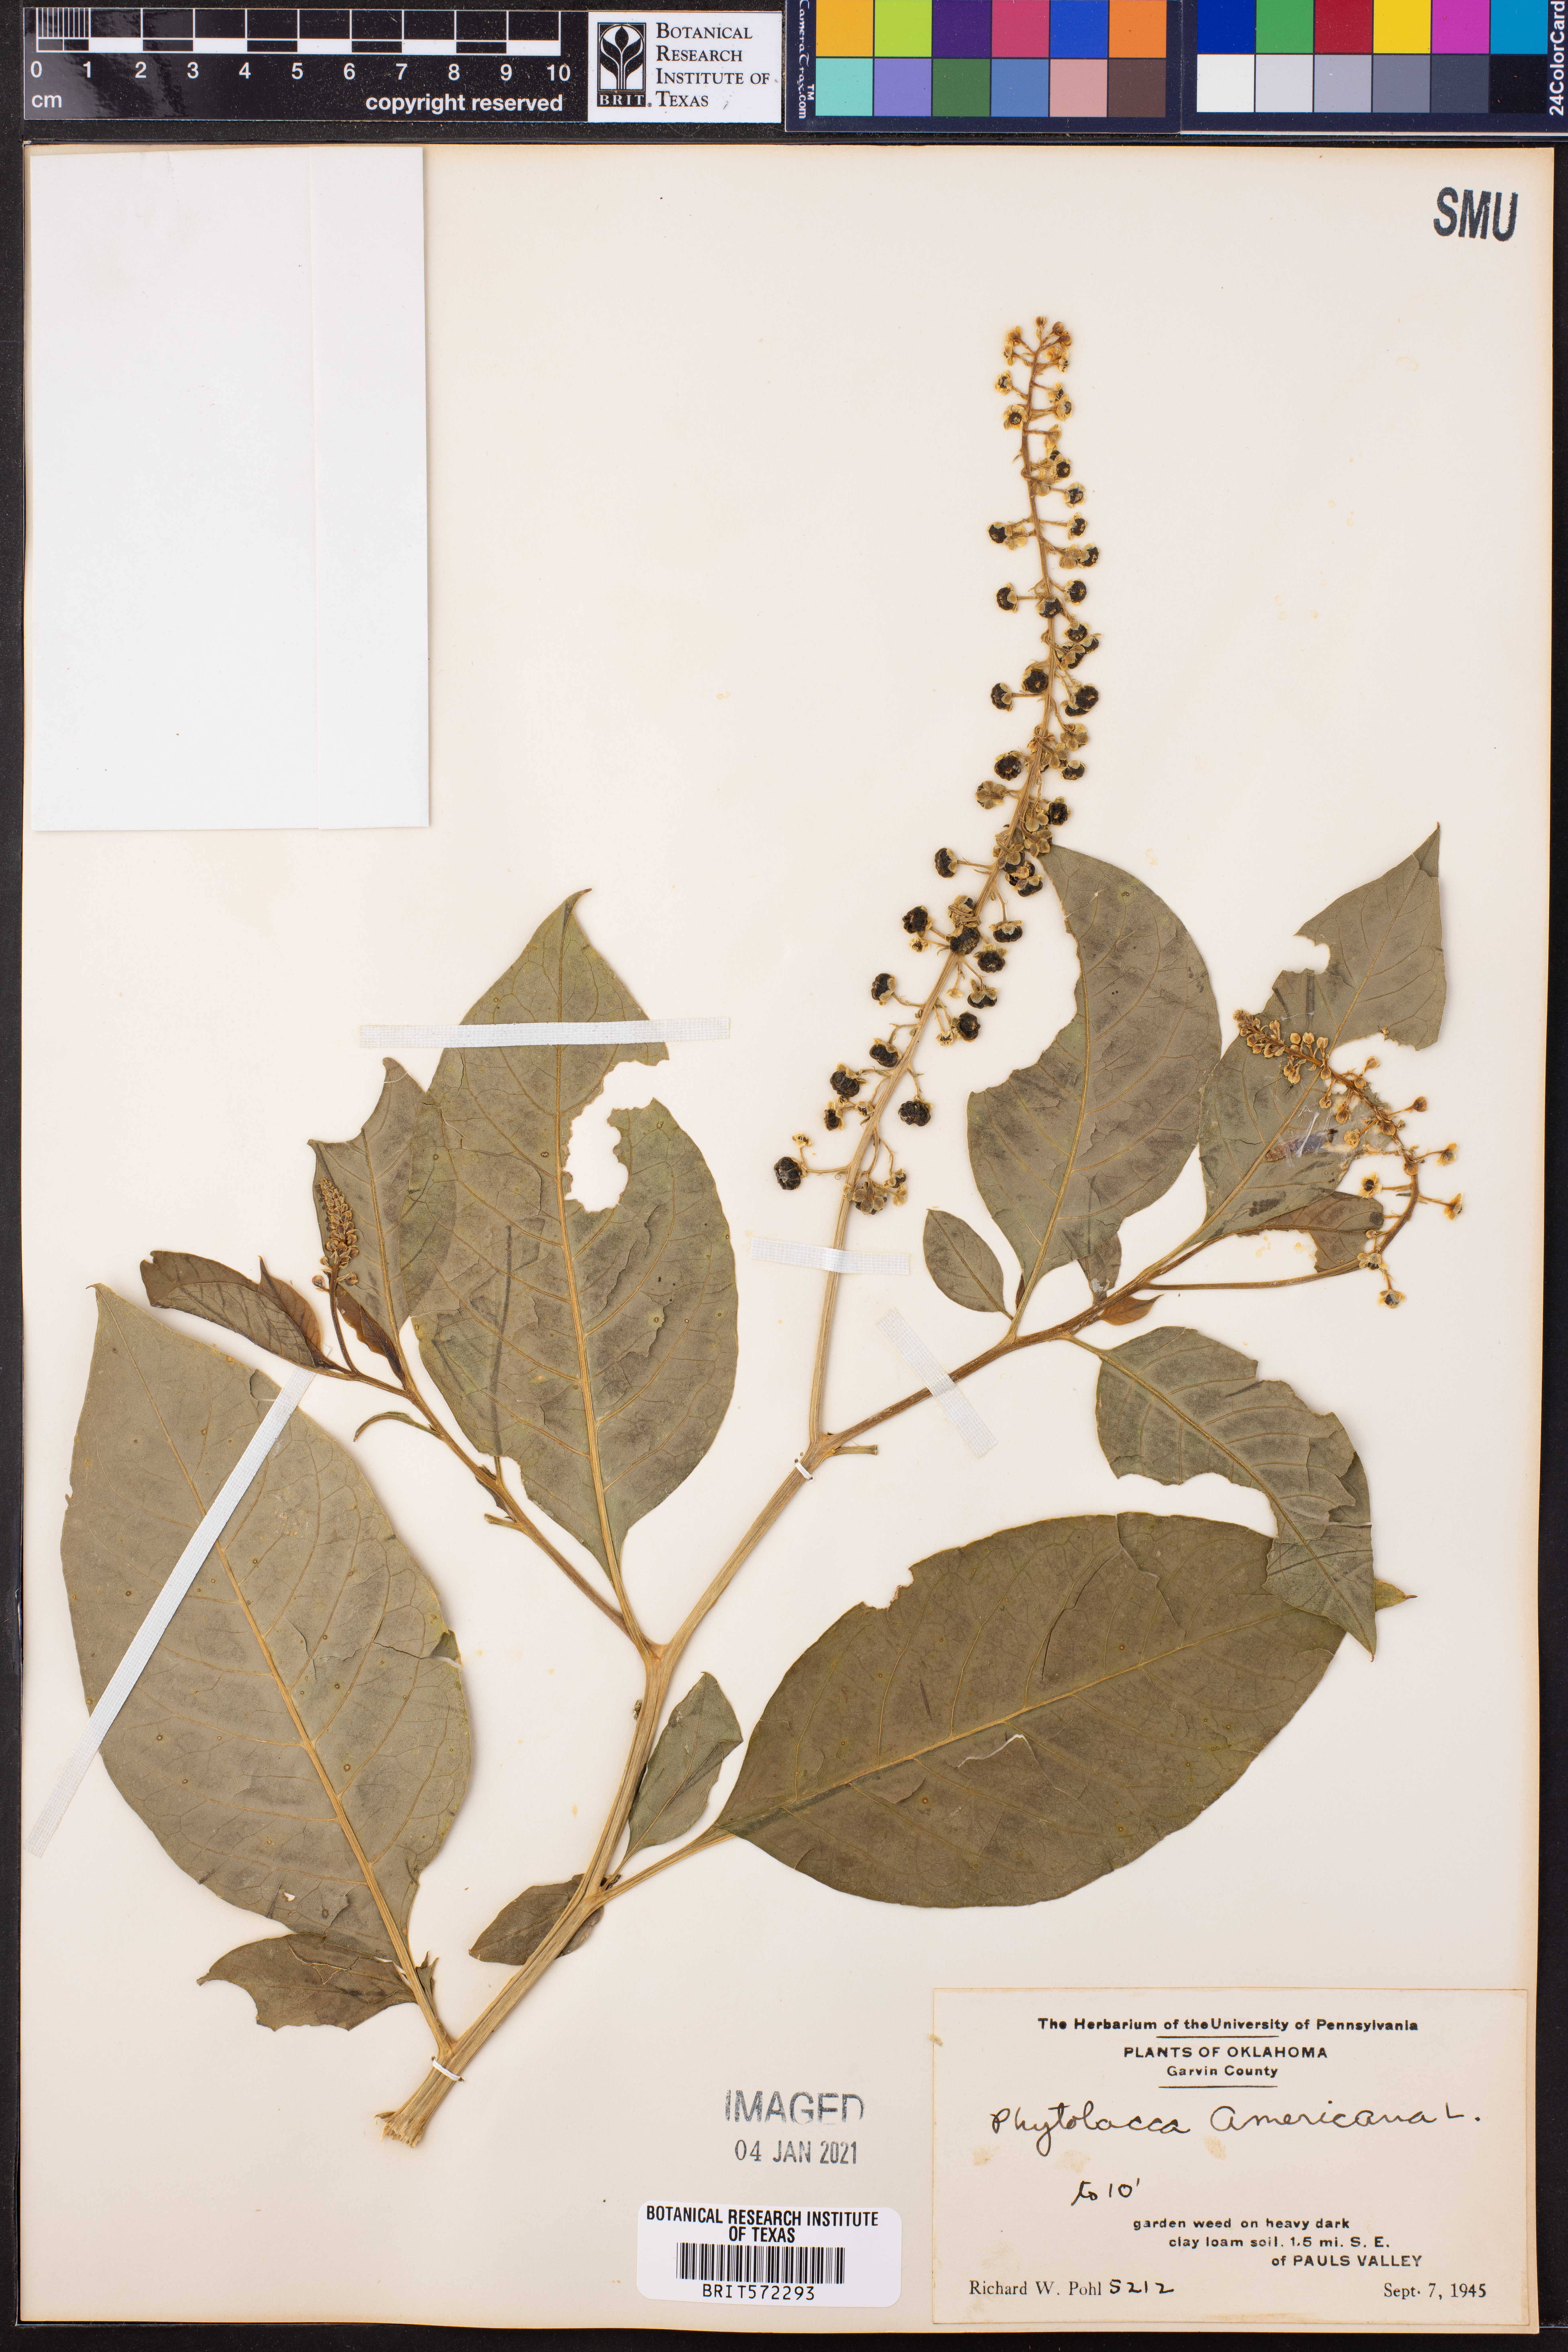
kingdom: Plantae
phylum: Tracheophyta
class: Magnoliopsida
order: Caryophyllales
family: Phytolaccaceae
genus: Phytolacca
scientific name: Phytolacca americana
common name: American pokeweed
